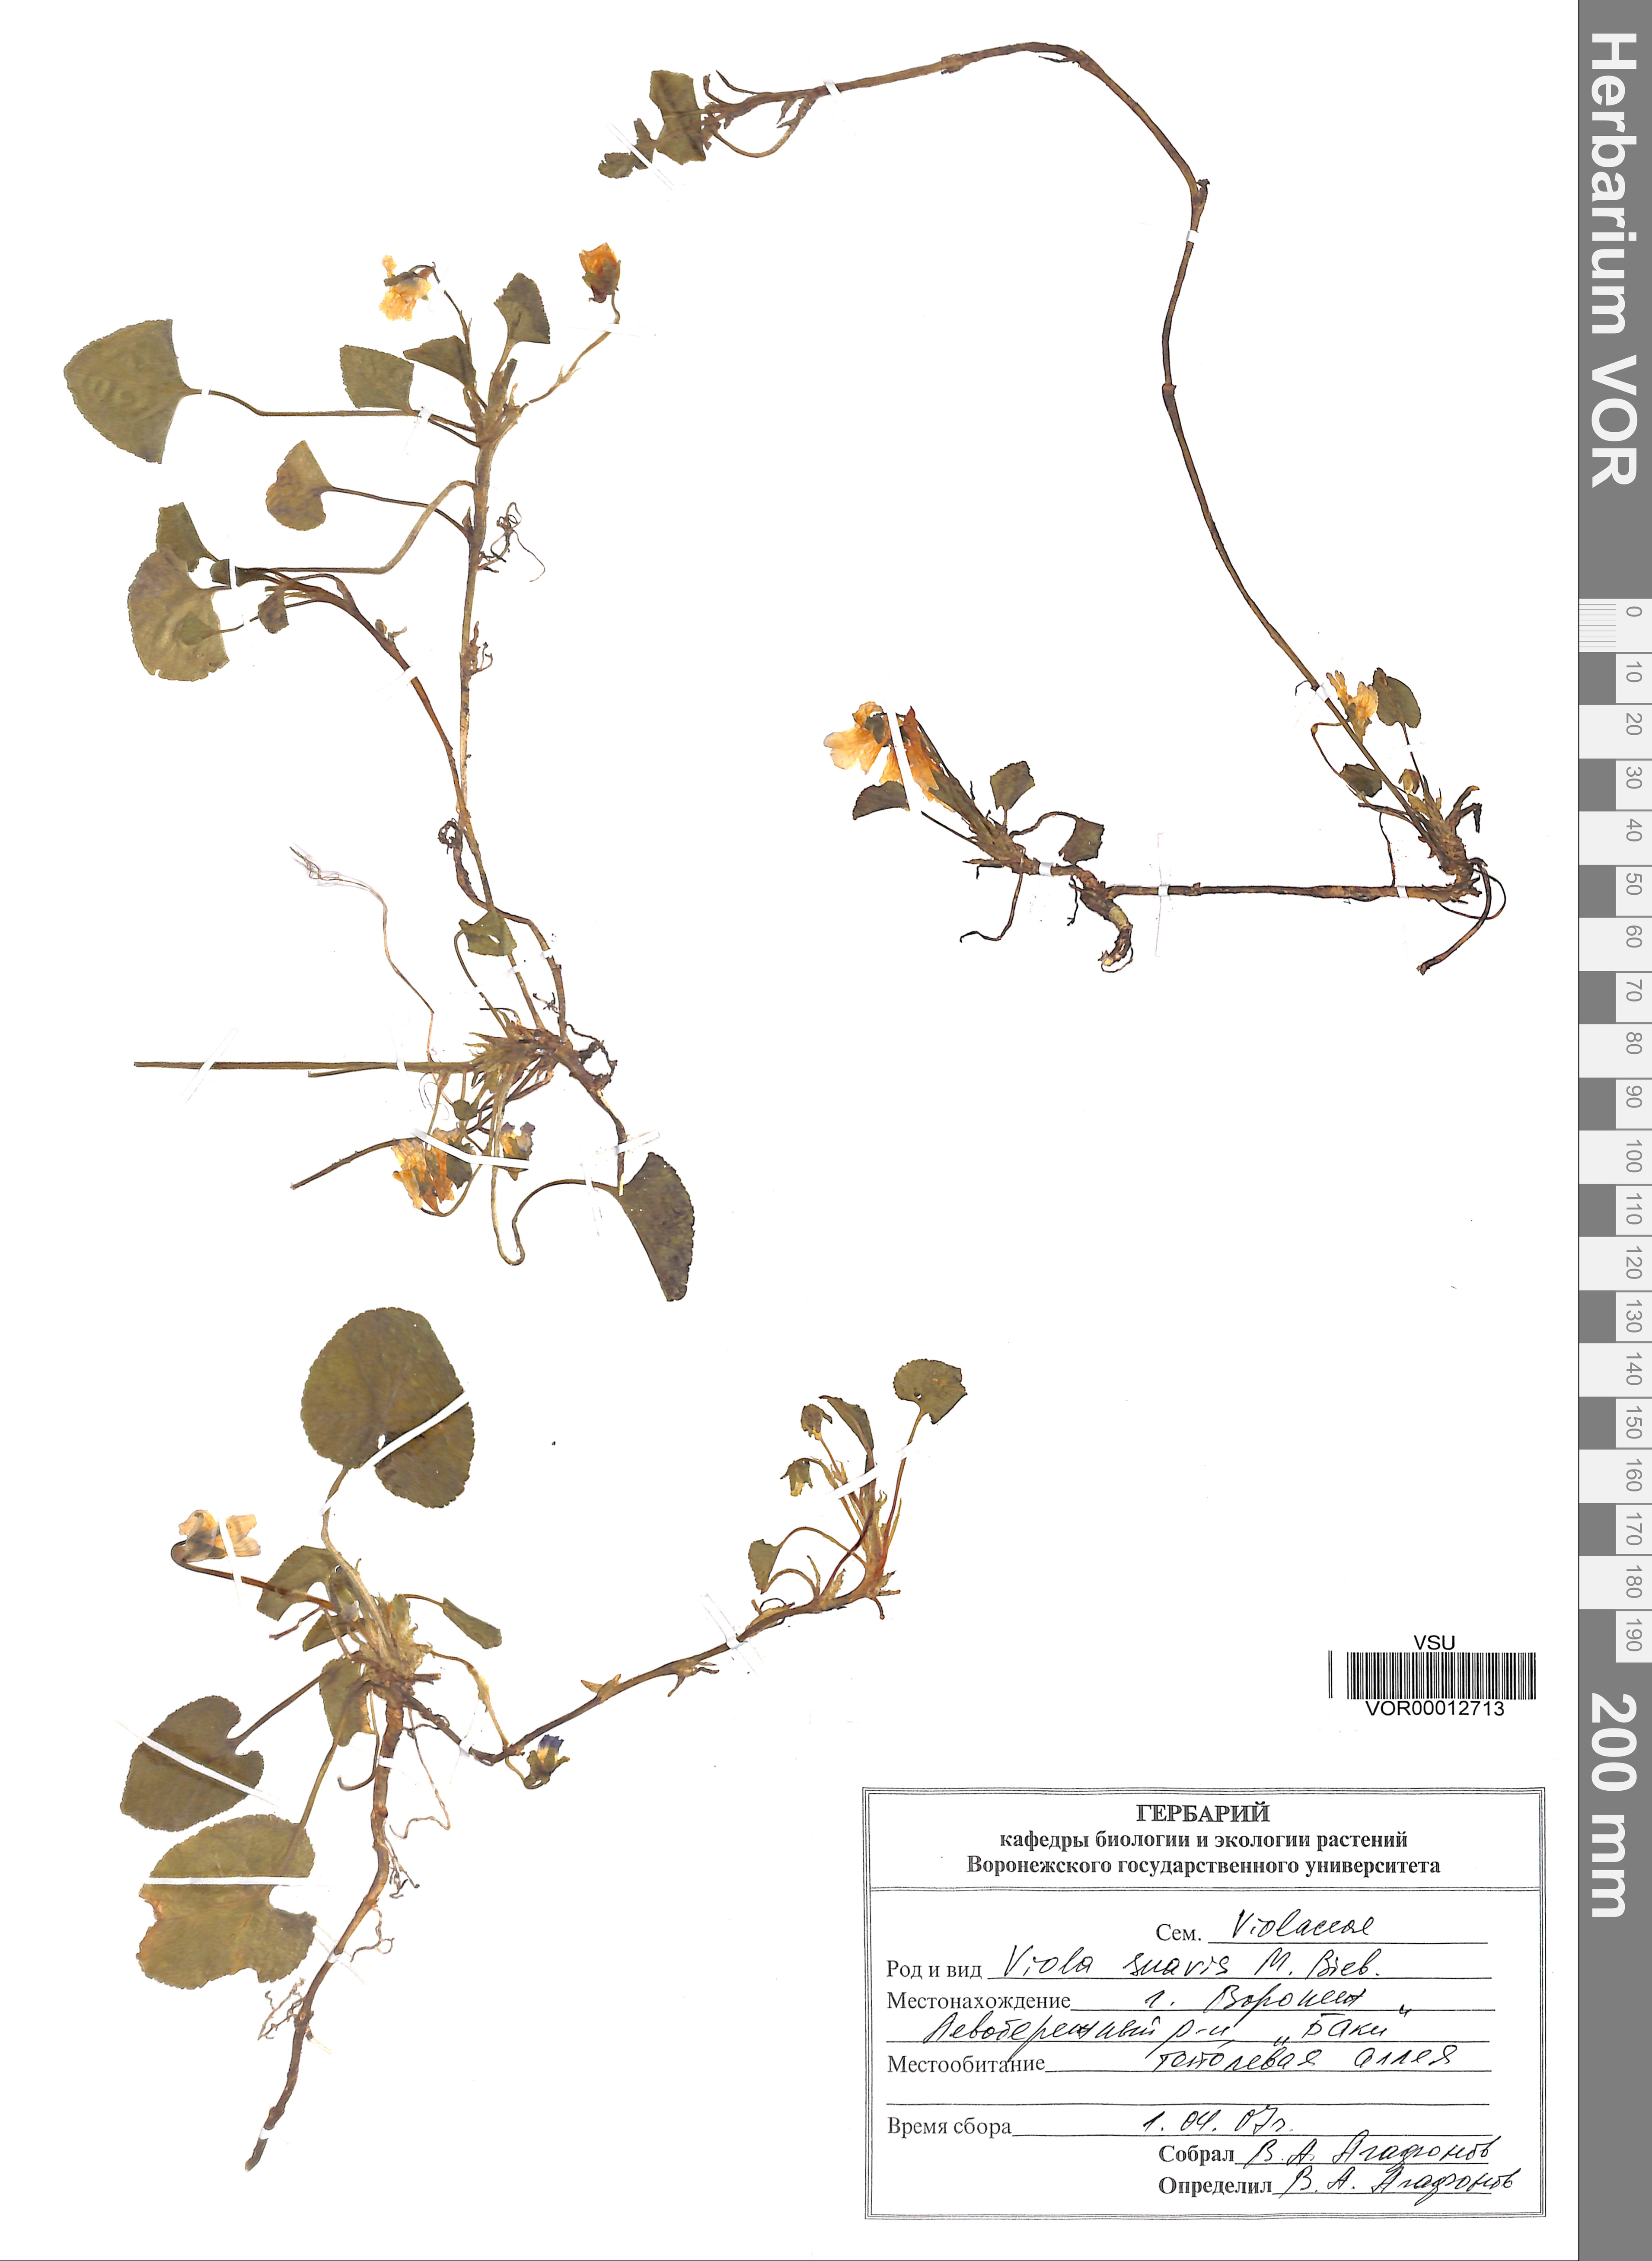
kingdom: Plantae
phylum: Tracheophyta
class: Magnoliopsida
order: Malpighiales
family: Violaceae
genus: Viola
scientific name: Viola suavis
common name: Russian violet
